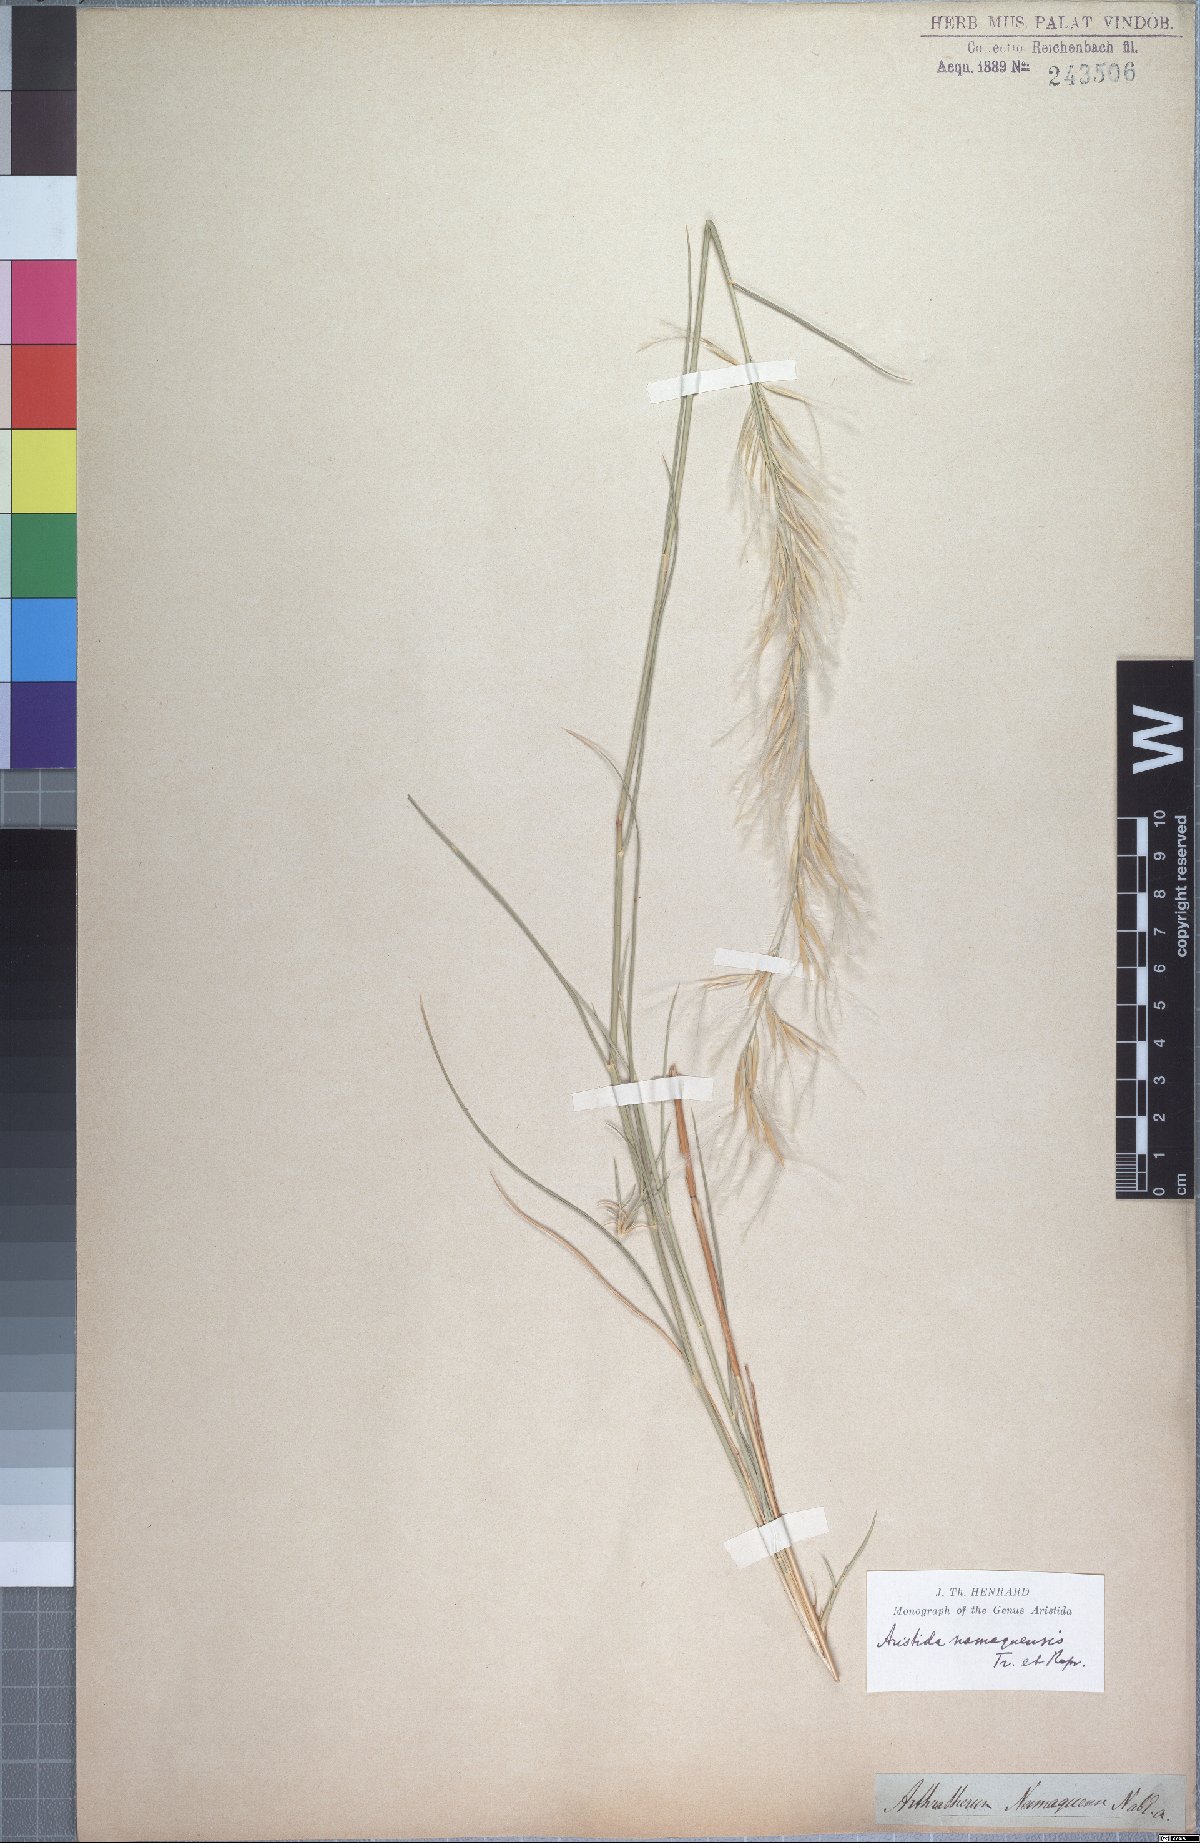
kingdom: Plantae
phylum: Tracheophyta
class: Liliopsida
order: Poales
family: Poaceae
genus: Stipagrostis
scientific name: Stipagrostis namaquensis
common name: River bushman grass
